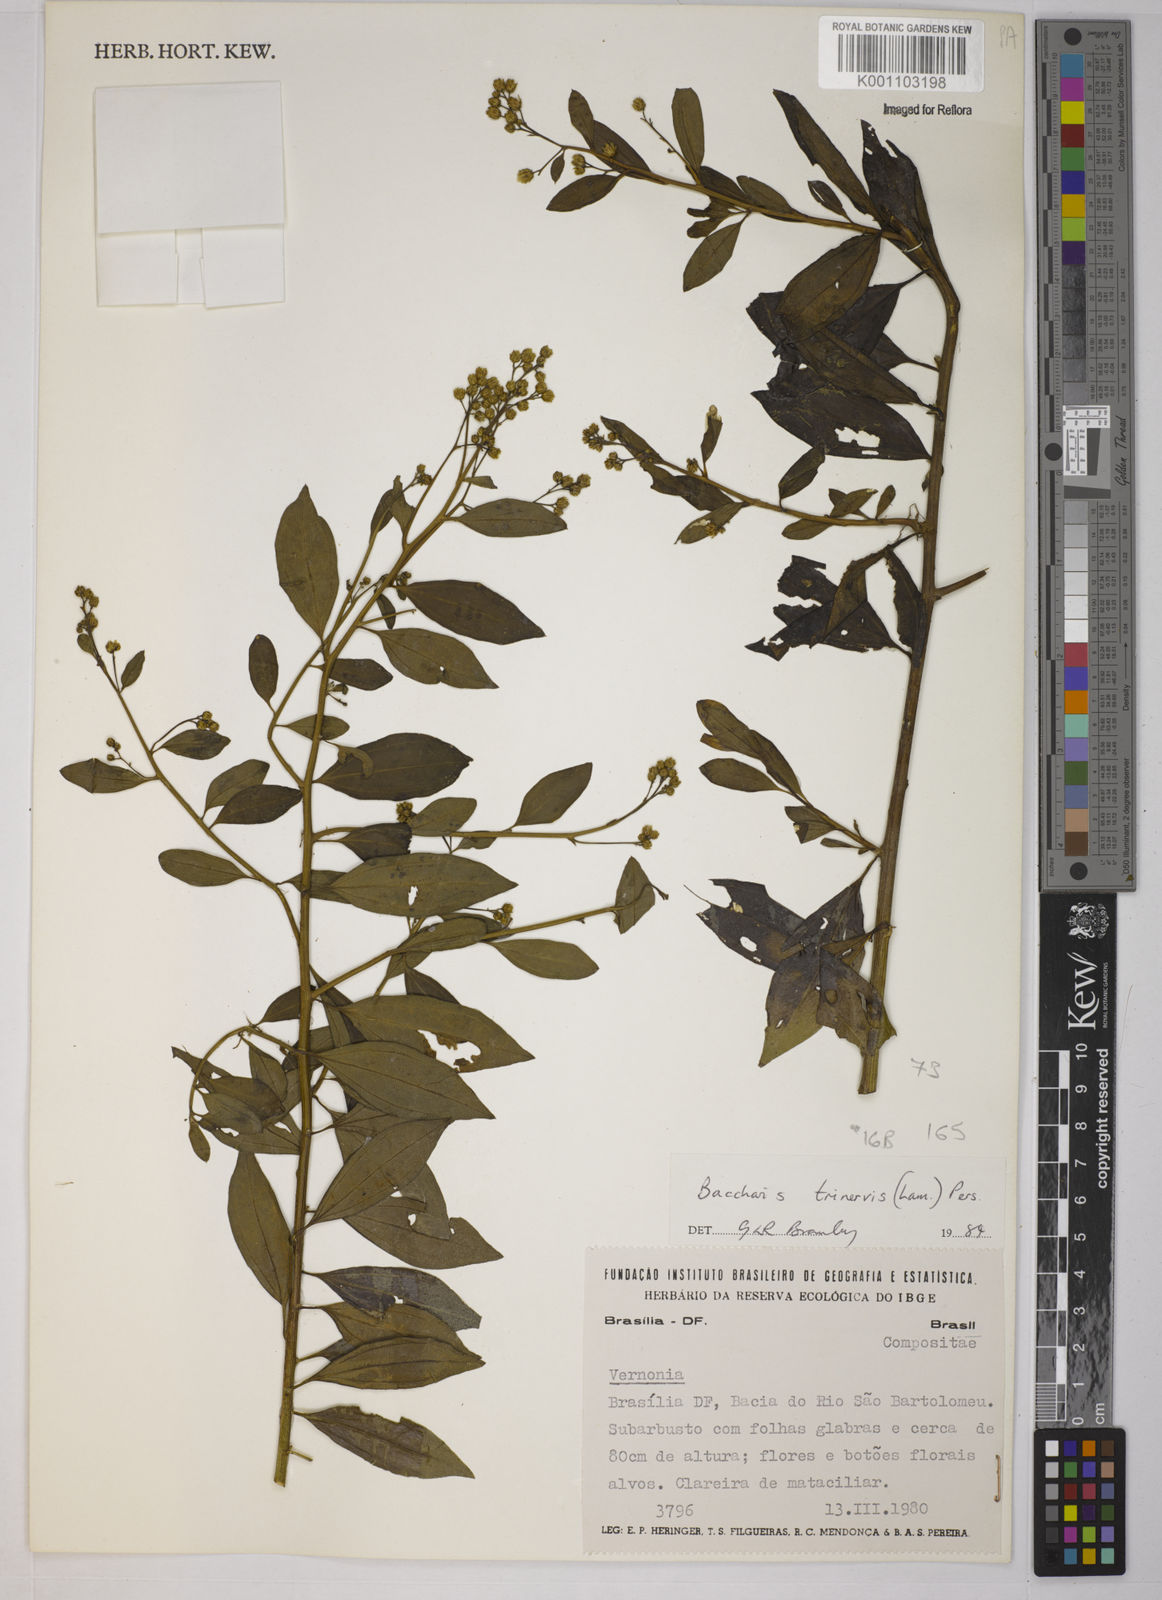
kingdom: Plantae
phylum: Tracheophyta
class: Magnoliopsida
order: Asterales
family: Asteraceae
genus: Baccharis
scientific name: Baccharis trinervis
